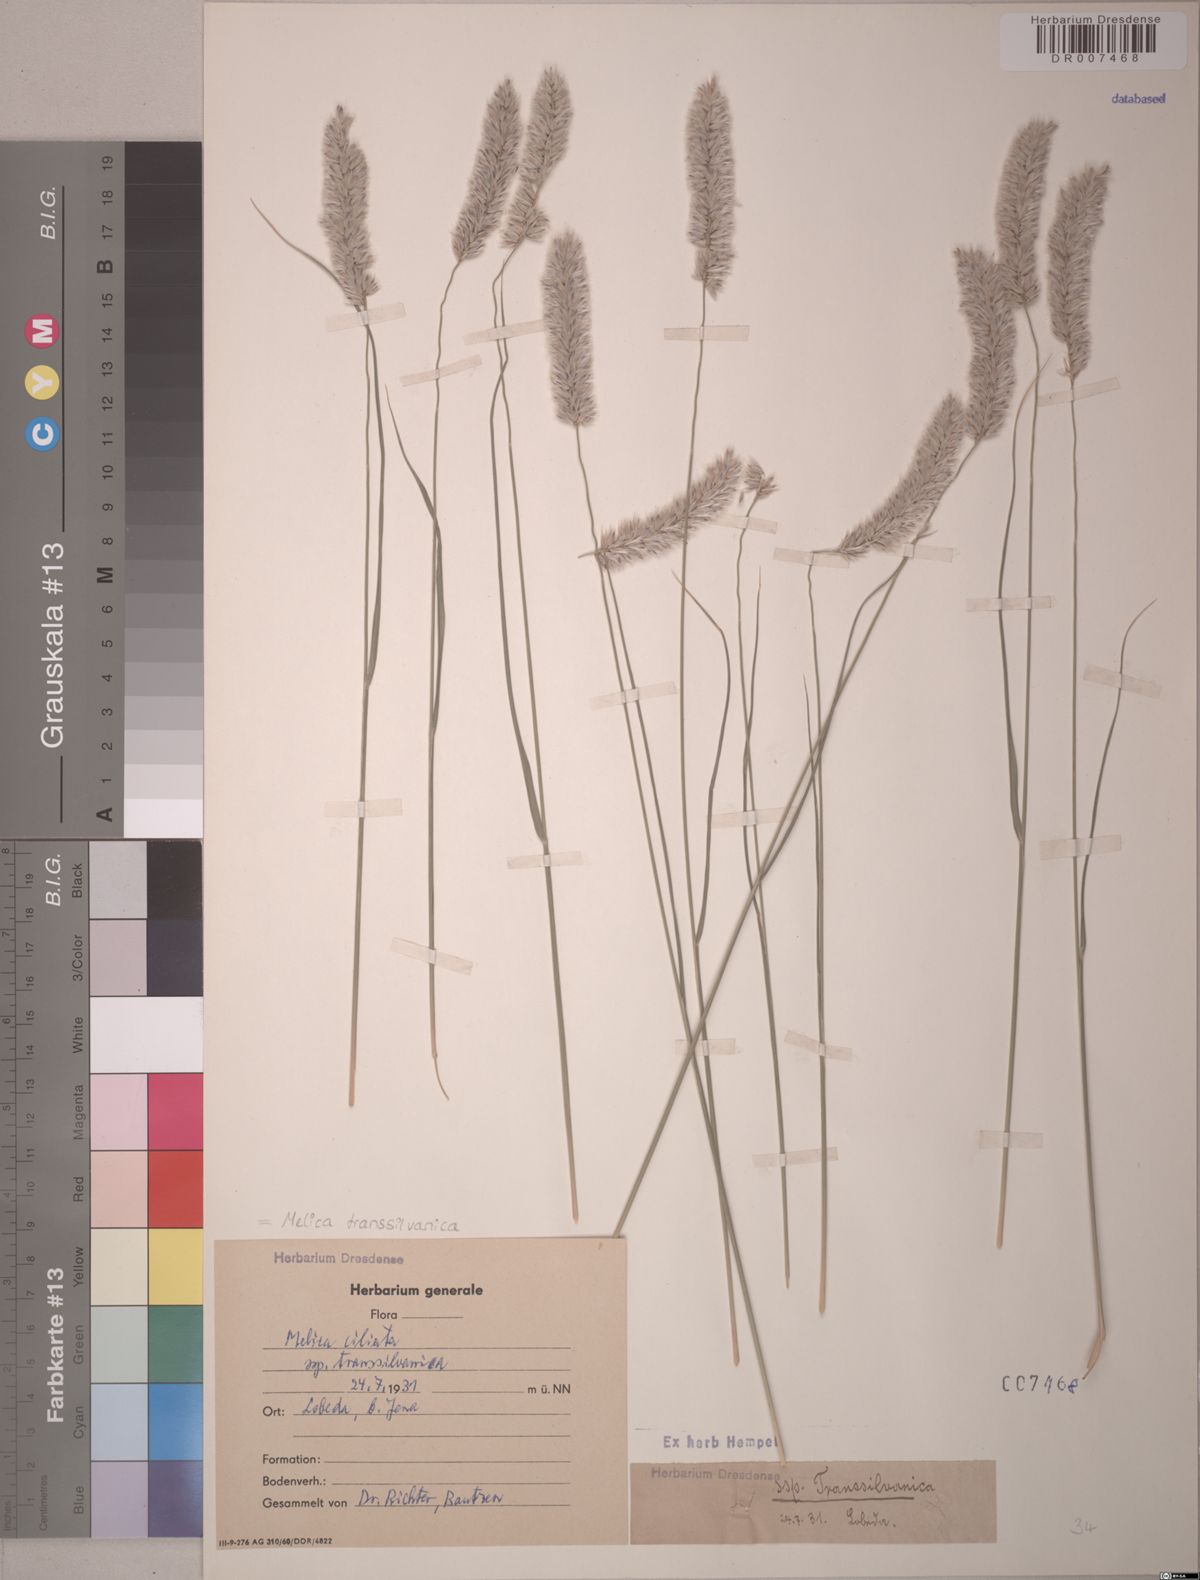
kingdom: Plantae
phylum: Tracheophyta
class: Liliopsida
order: Poales
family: Poaceae
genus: Melica
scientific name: Melica transsilvanica
